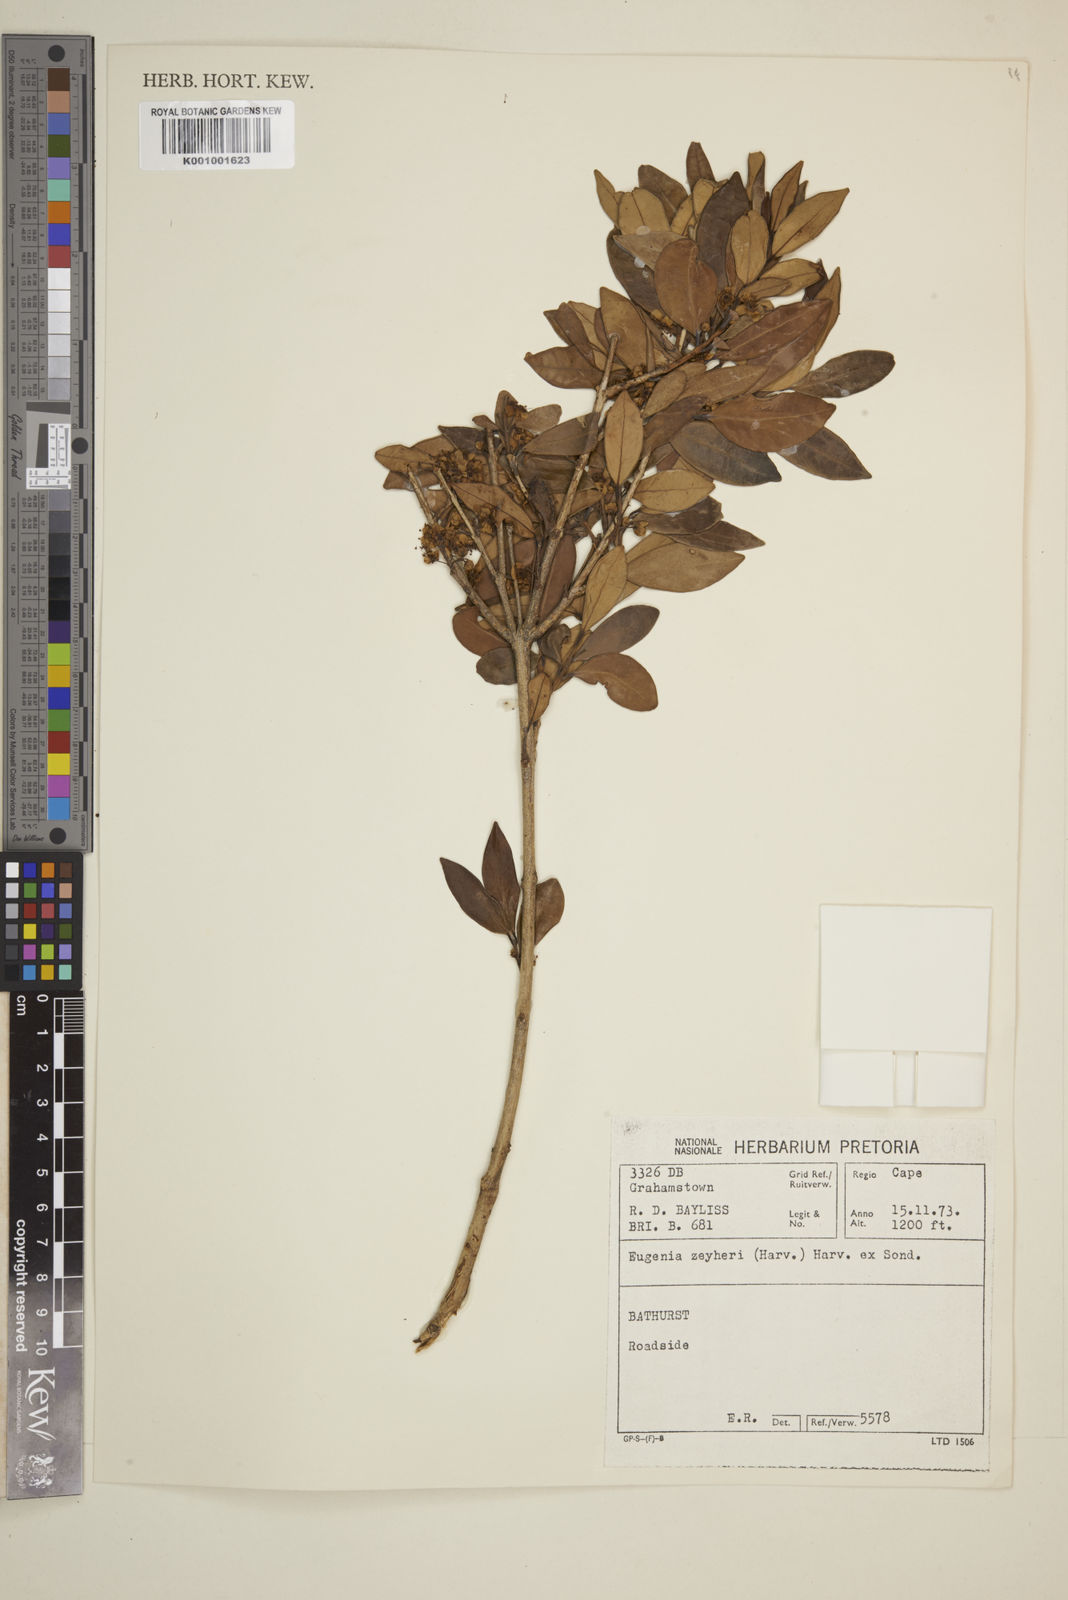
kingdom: Plantae
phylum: Tracheophyta
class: Magnoliopsida
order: Myrtales
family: Myrtaceae
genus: Eugenia
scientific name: Eugenia zeyheri
